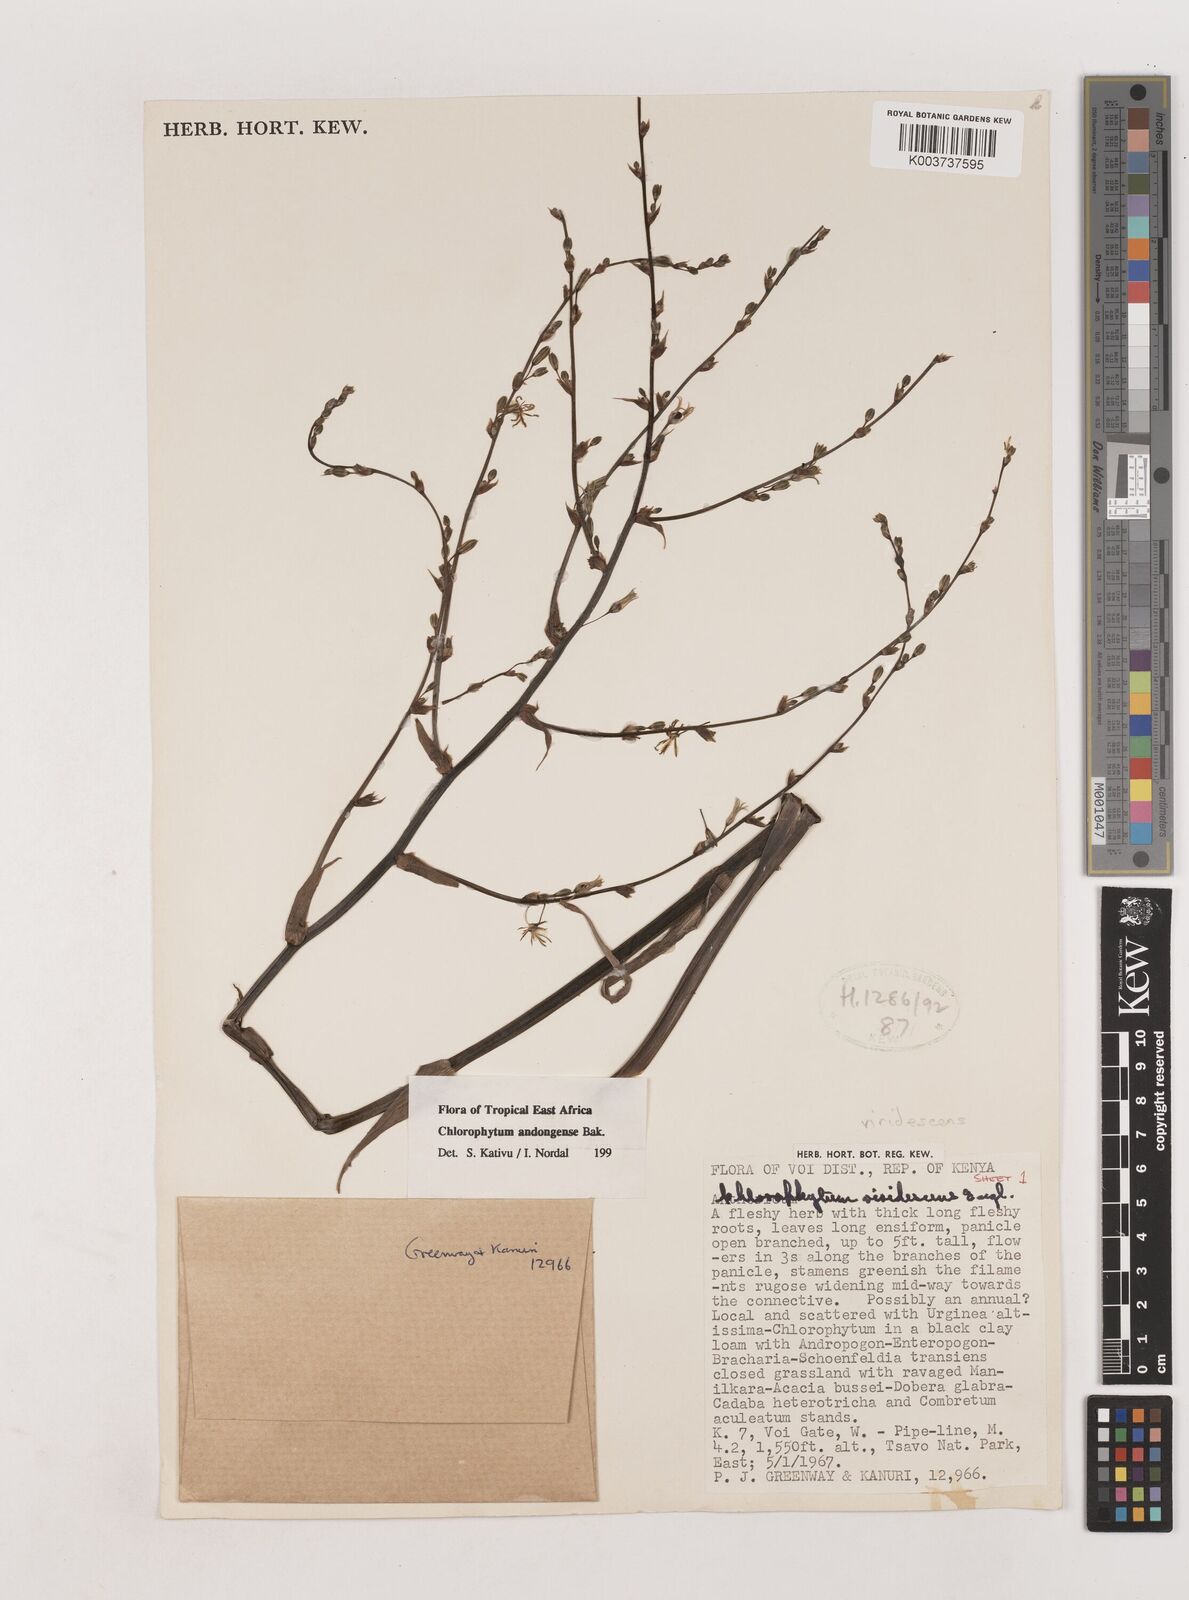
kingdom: Plantae
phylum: Tracheophyta
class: Liliopsida
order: Asparagales
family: Asparagaceae
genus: Chlorophytum
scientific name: Chlorophytum andongense
